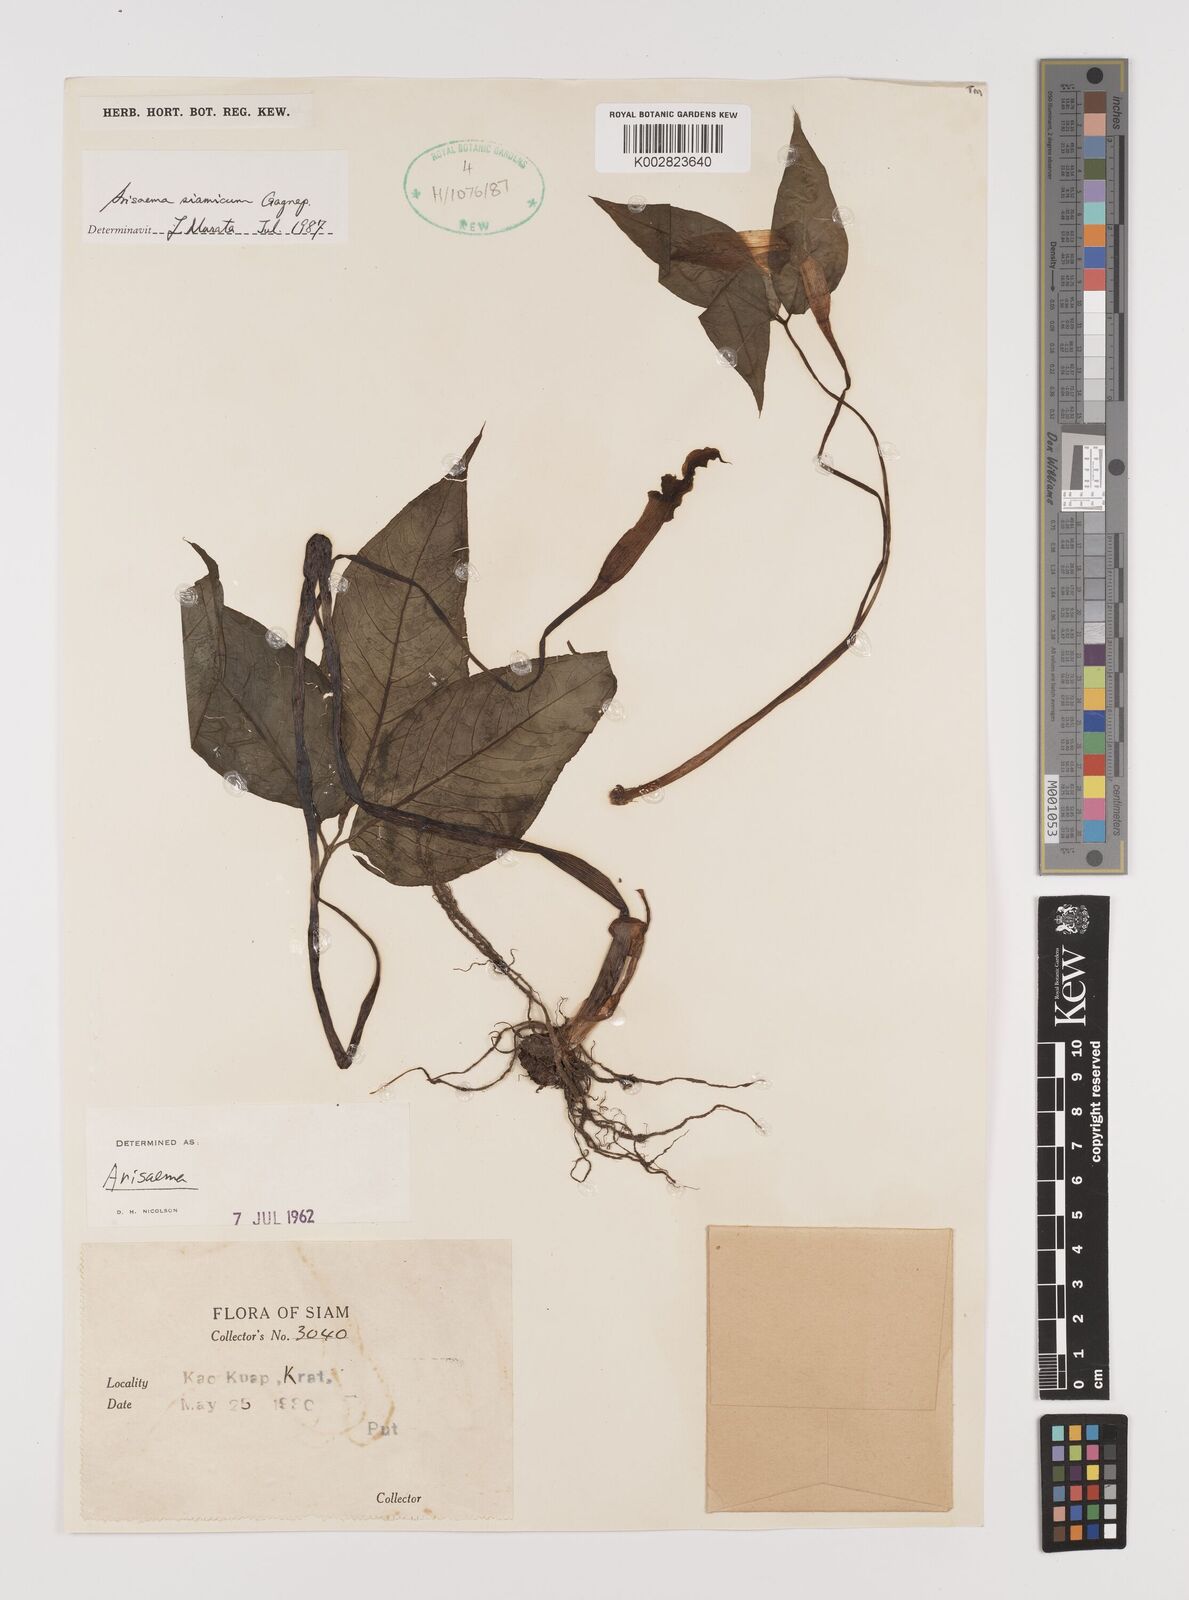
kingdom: Plantae
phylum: Tracheophyta
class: Liliopsida
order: Alismatales
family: Araceae
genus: Arisaema
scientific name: Arisaema siamicum
